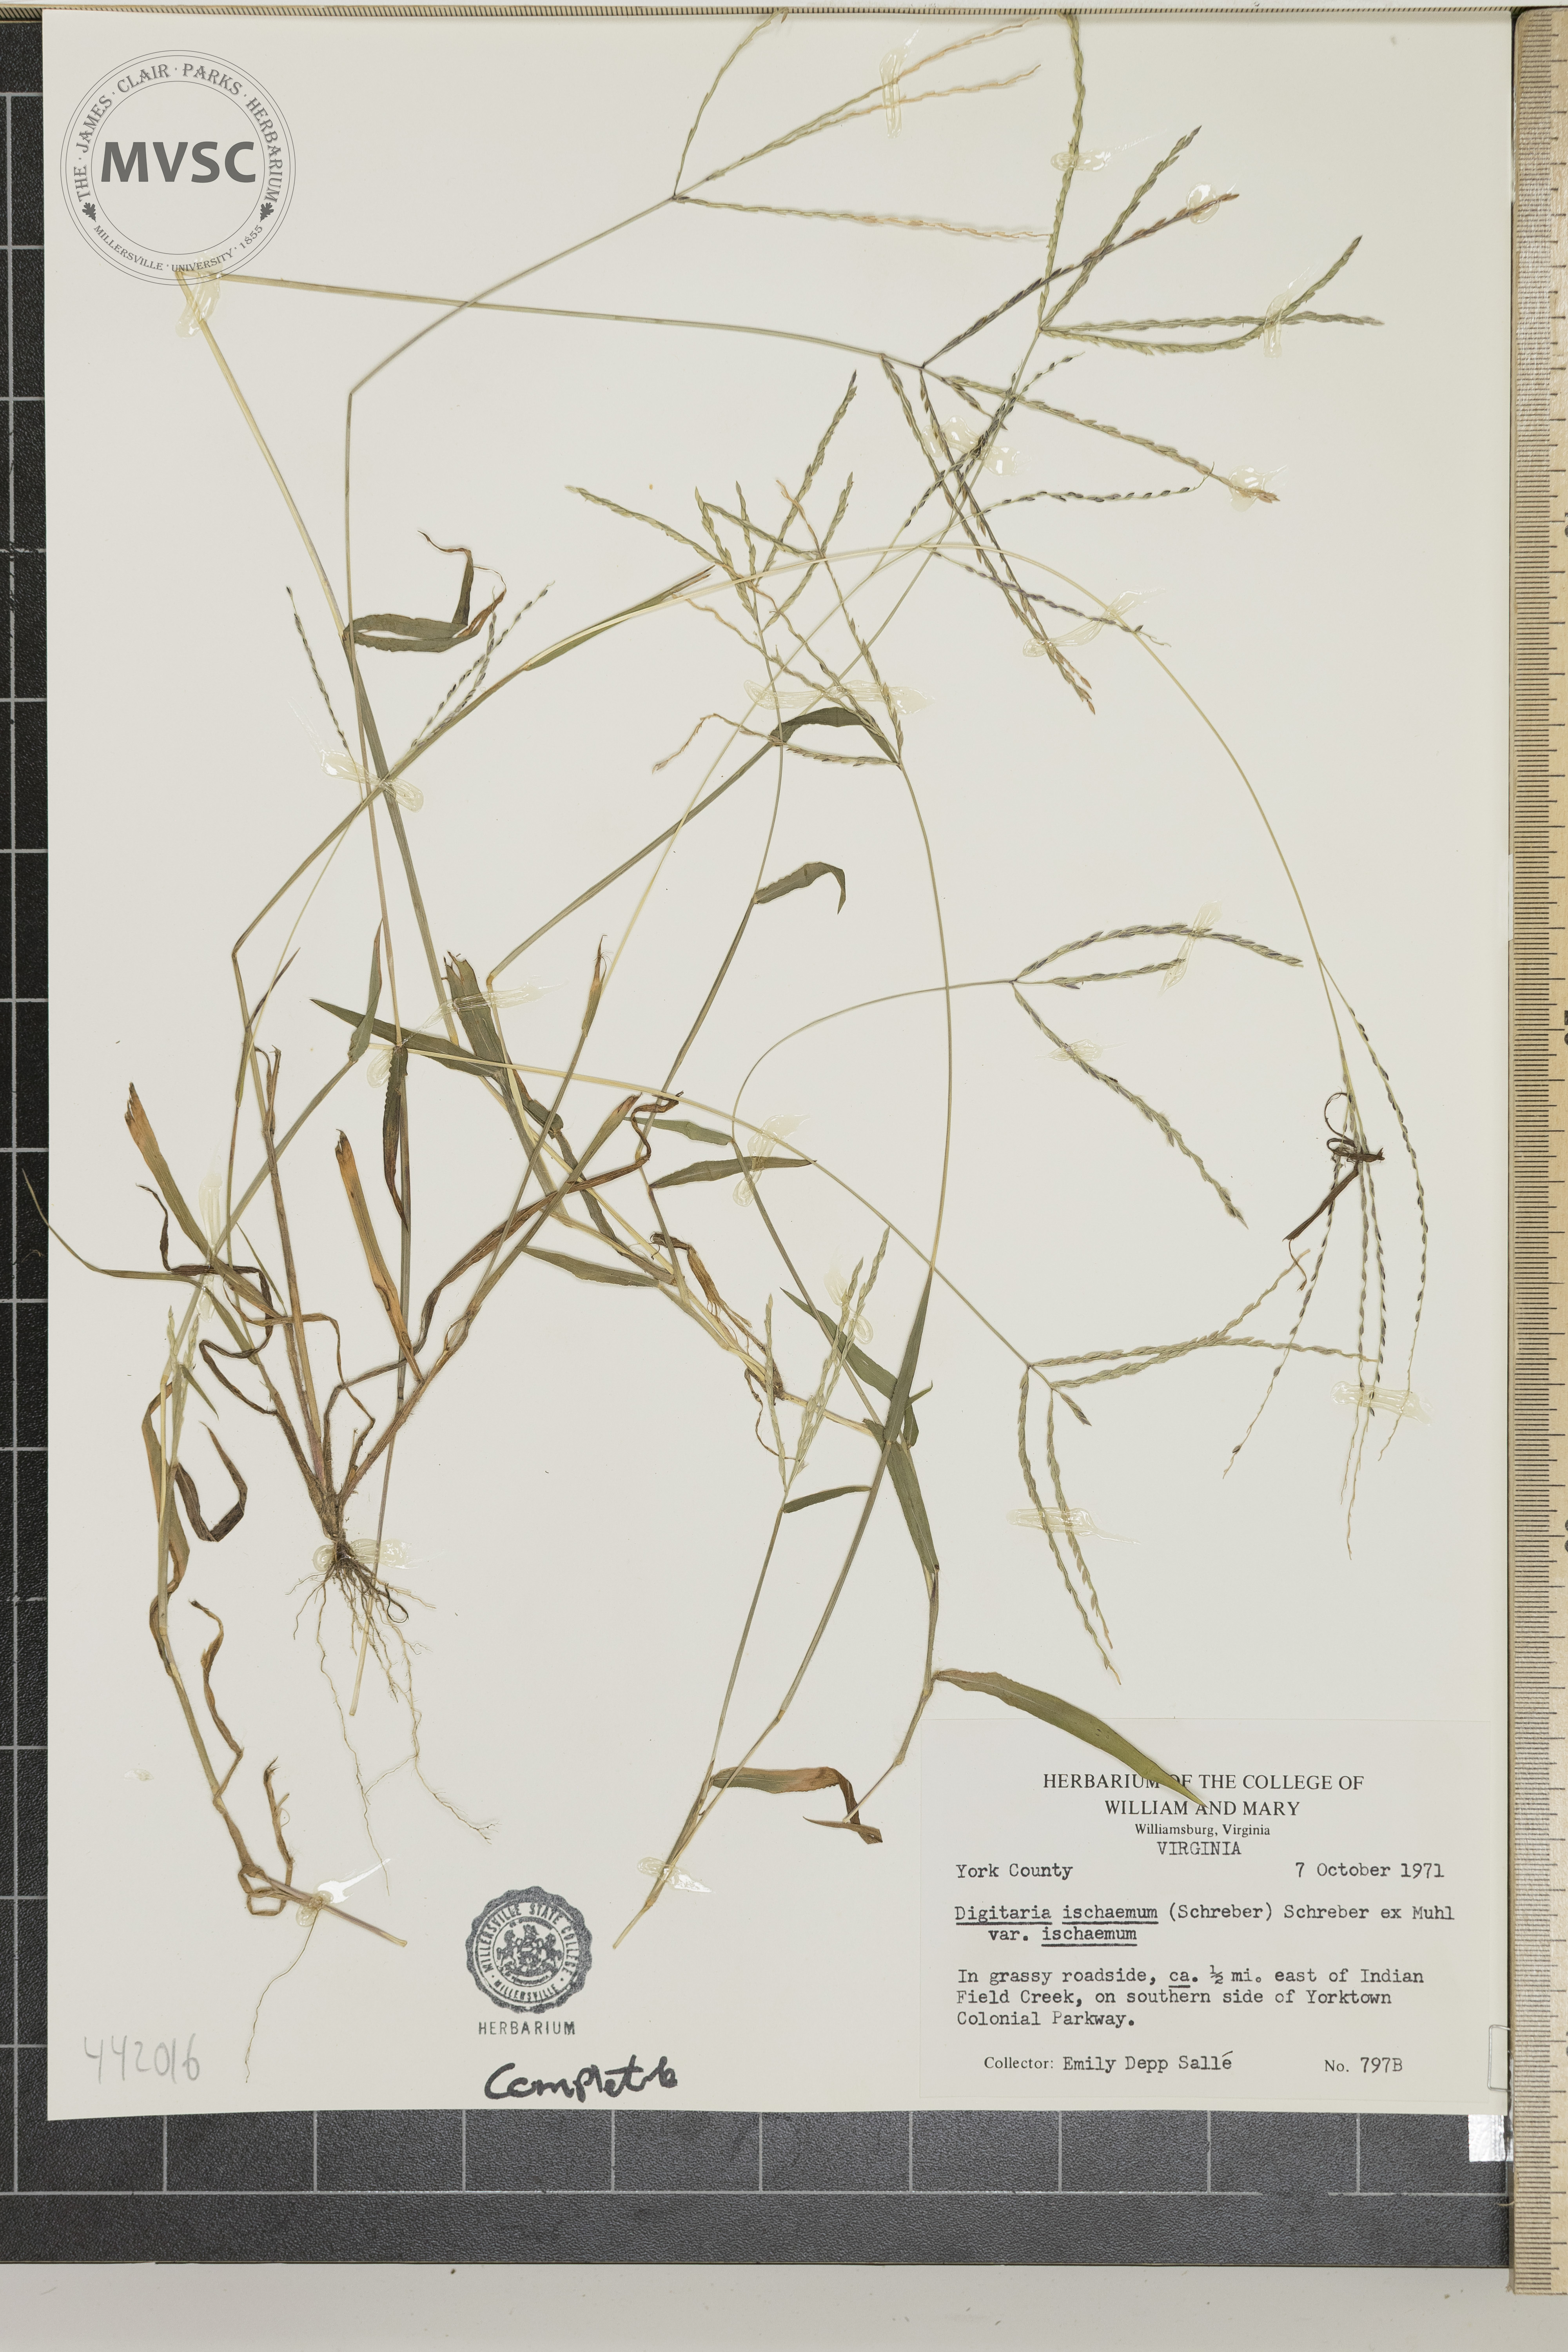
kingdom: Plantae
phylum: Tracheophyta
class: Liliopsida
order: Poales
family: Poaceae
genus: Digitaria
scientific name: Digitaria ischaemum
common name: Smooth crabgrass
